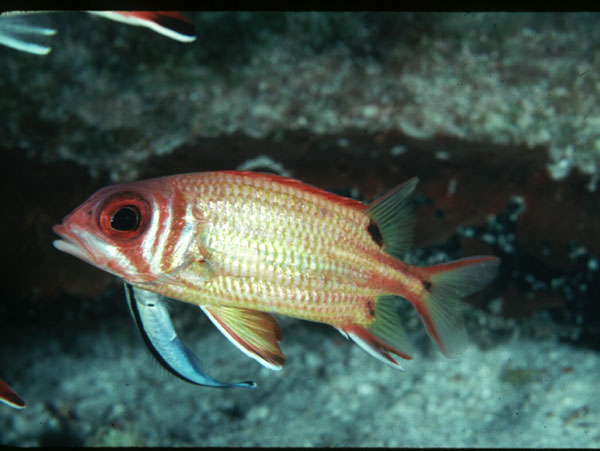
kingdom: Animalia
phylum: Chordata
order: Beryciformes
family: Holocentridae
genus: Sargocentron
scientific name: Sargocentron melanospilos
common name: Blackblotch squirrelfish
